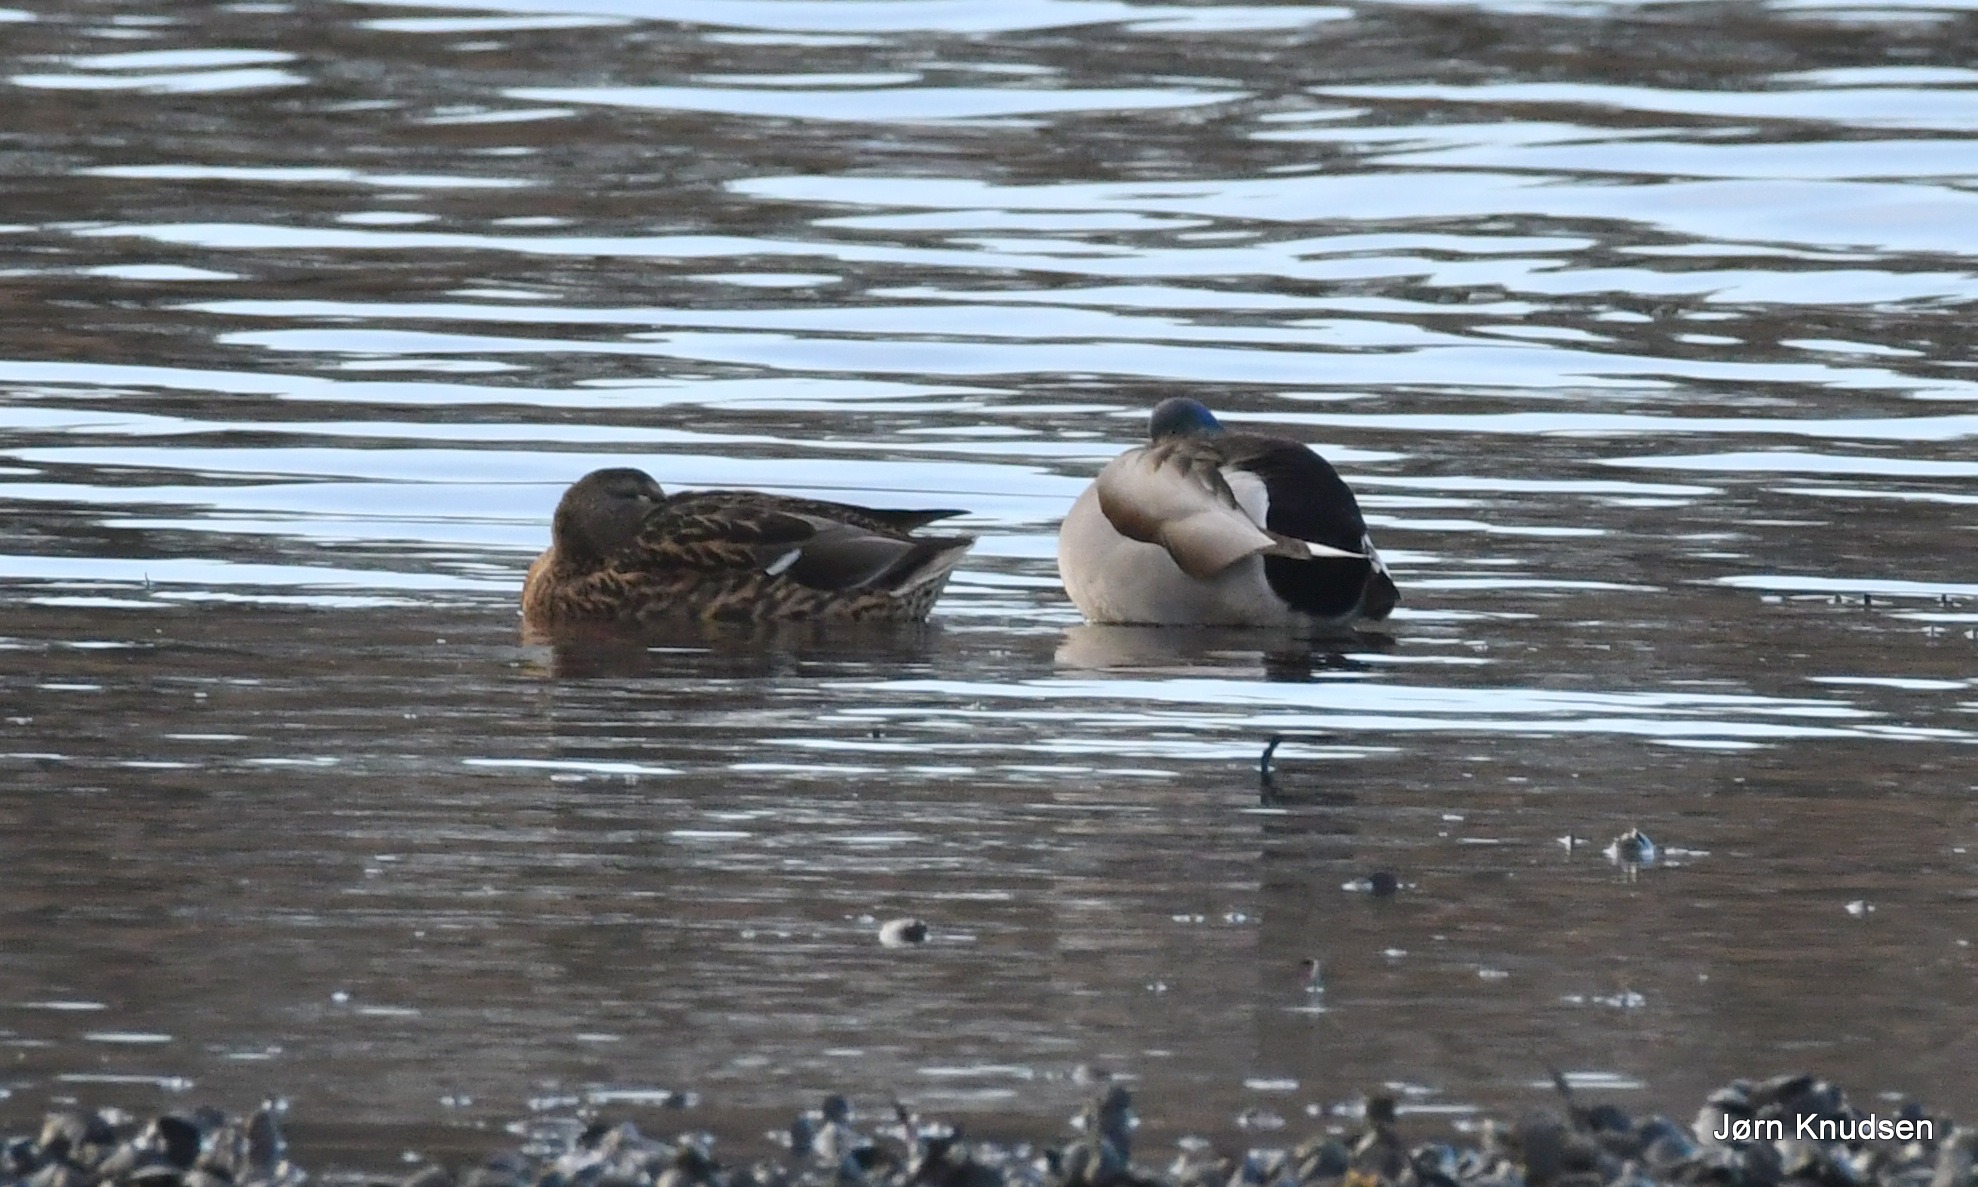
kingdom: Animalia
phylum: Chordata
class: Aves
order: Anseriformes
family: Anatidae
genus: Anas
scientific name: Anas platyrhynchos
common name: Gråand
